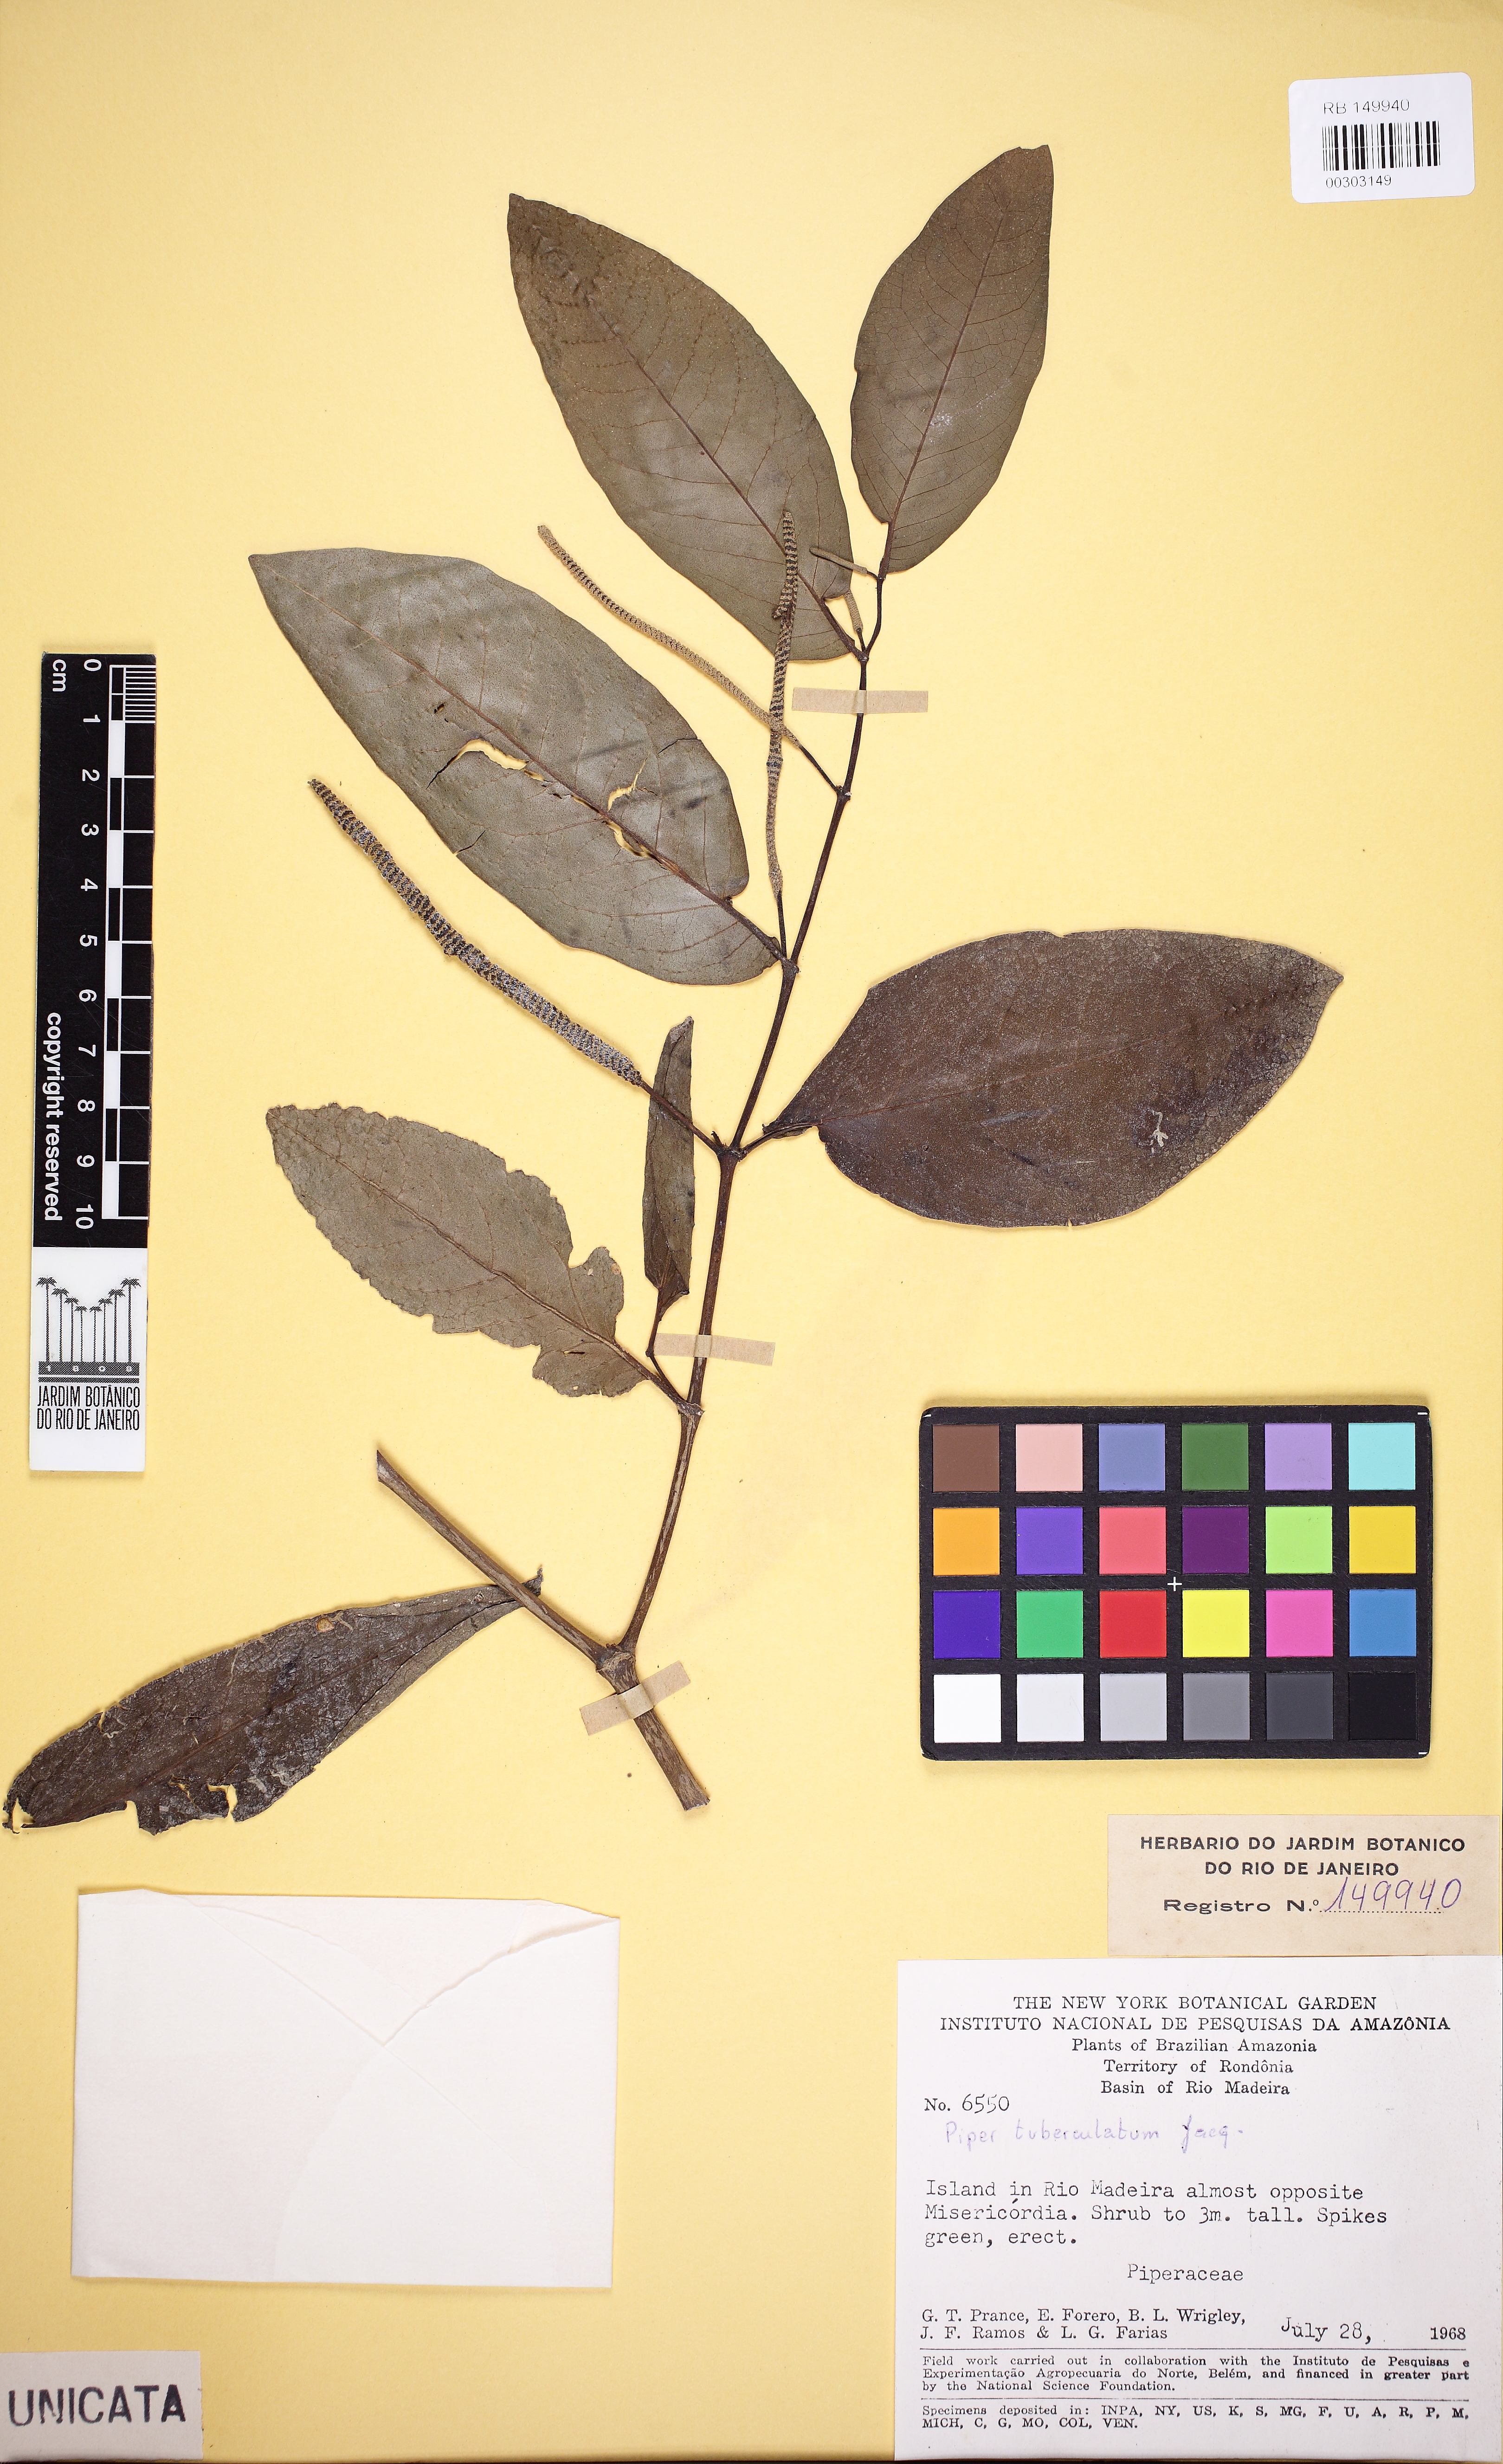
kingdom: Plantae
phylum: Tracheophyta
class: Magnoliopsida
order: Piperales
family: Piperaceae
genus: Piper
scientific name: Piper tuberculatum
